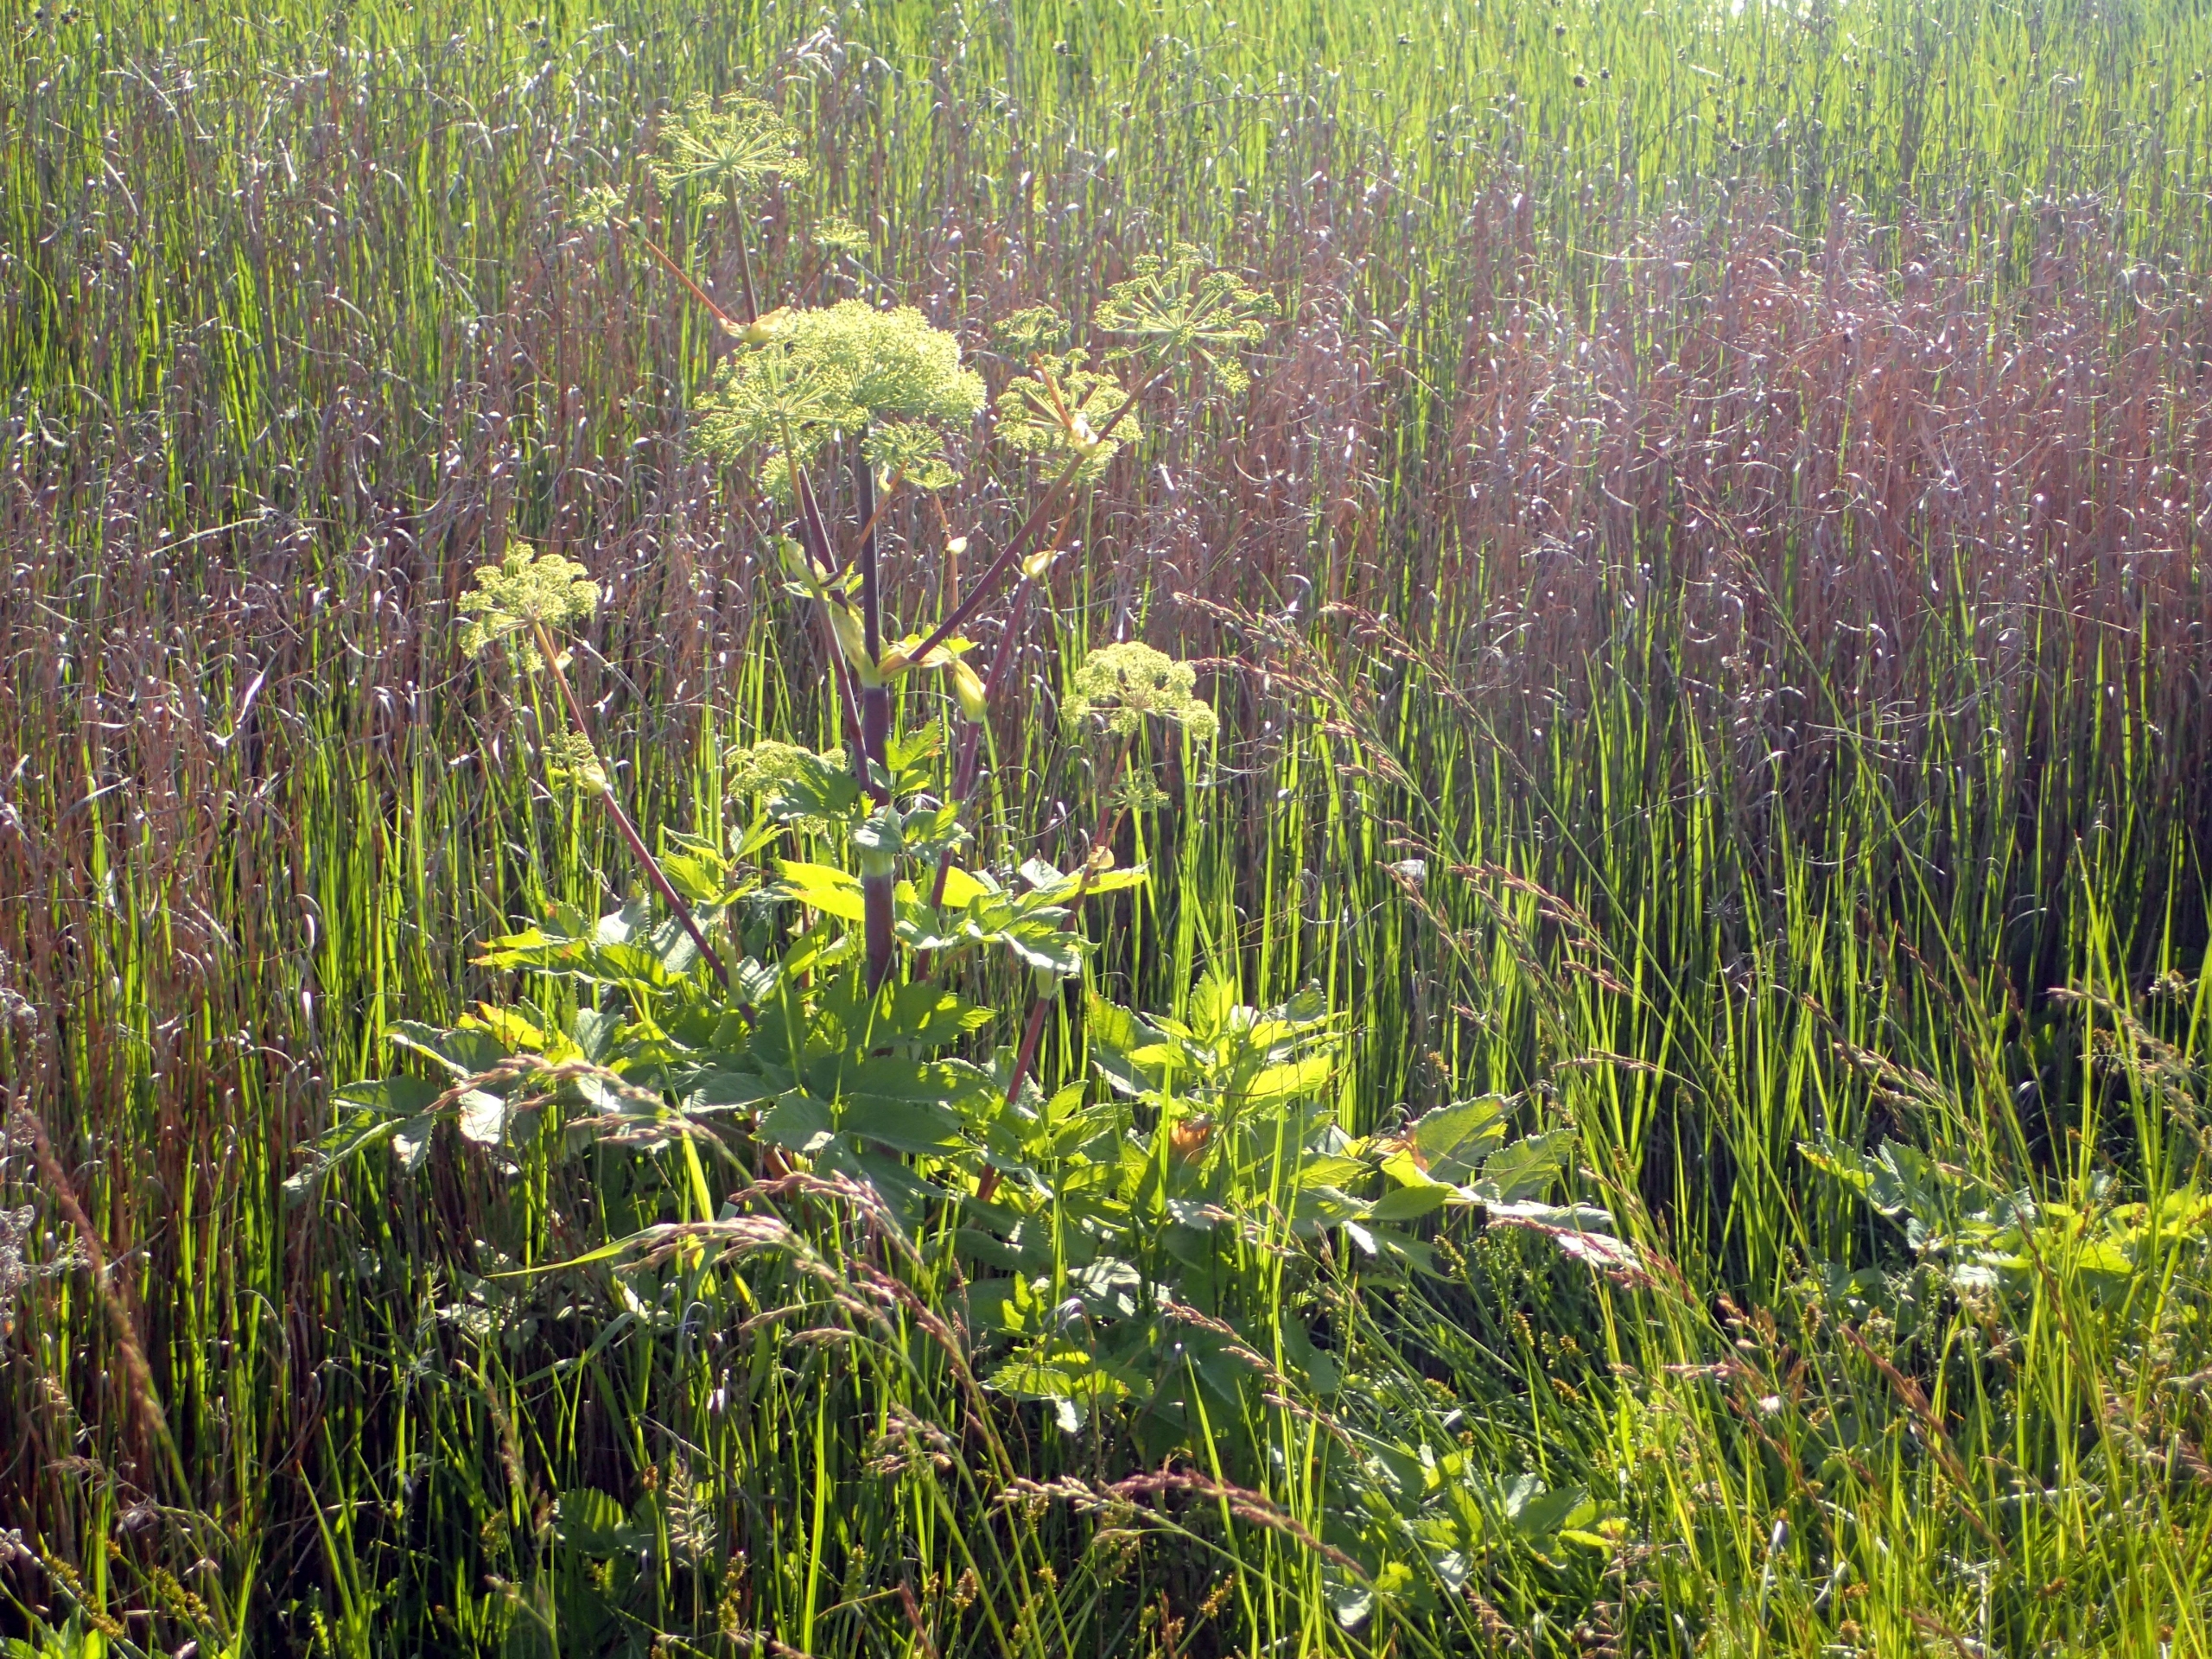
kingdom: Plantae
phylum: Tracheophyta
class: Magnoliopsida
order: Apiales
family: Apiaceae
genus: Angelica
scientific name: Angelica archangelica
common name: Strand-kvan
